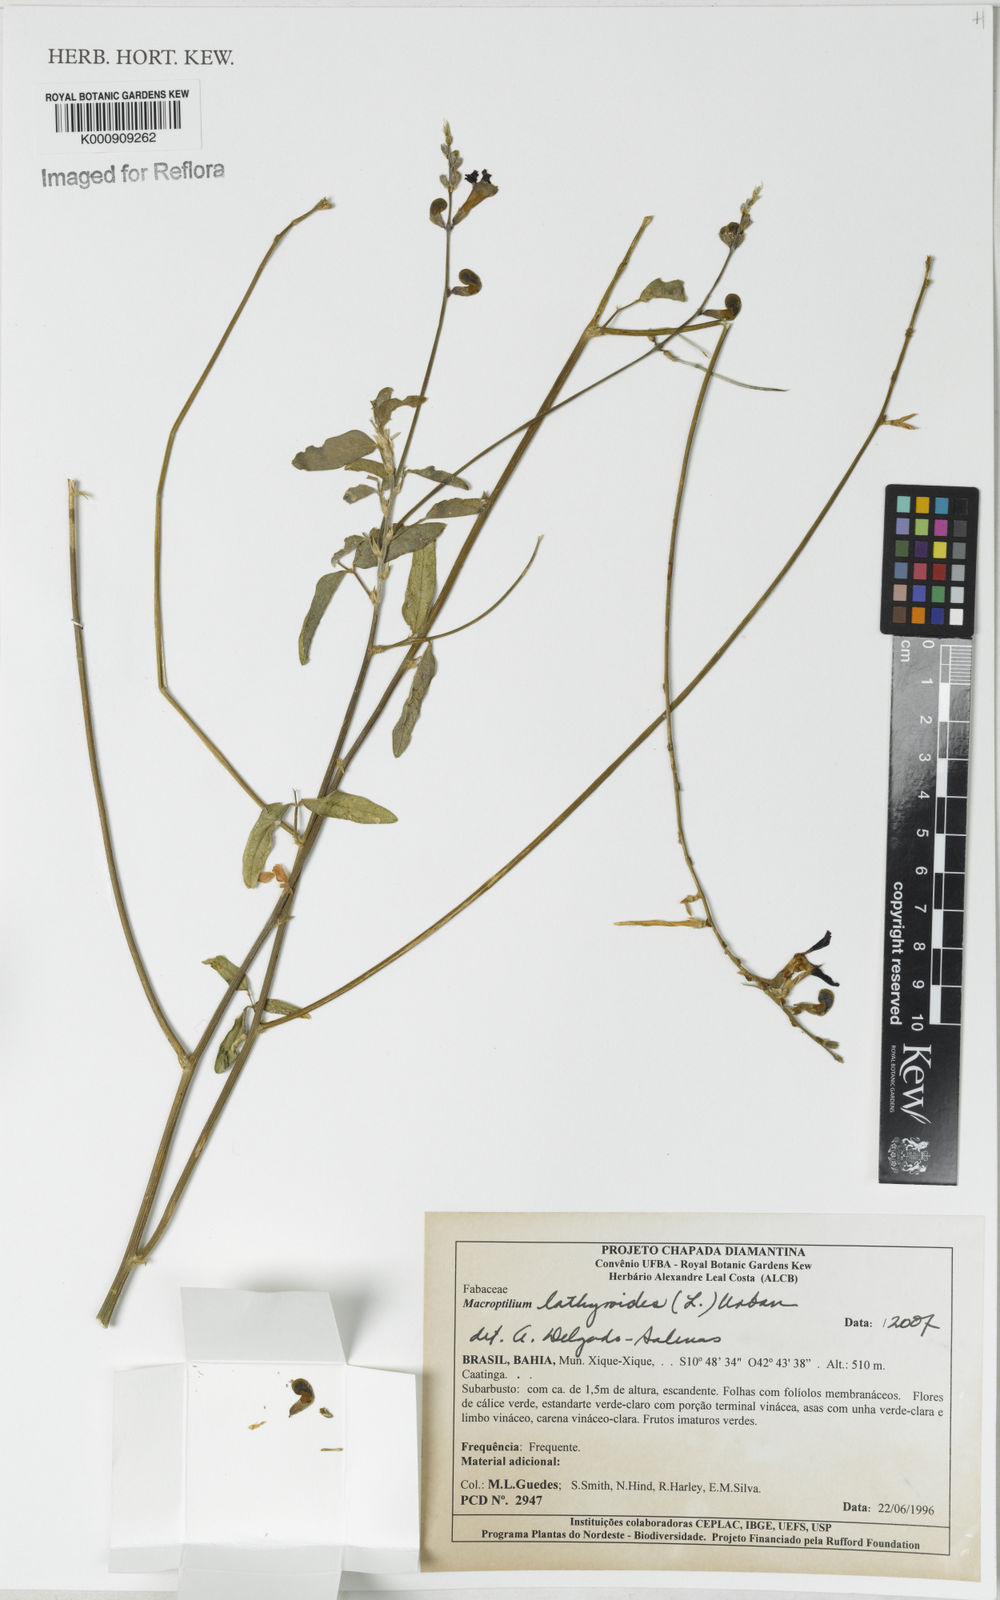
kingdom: Plantae
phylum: Tracheophyta
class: Magnoliopsida
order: Fabales
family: Fabaceae
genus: Macroptilium
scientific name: Macroptilium lathyroides
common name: Wild bushbean
